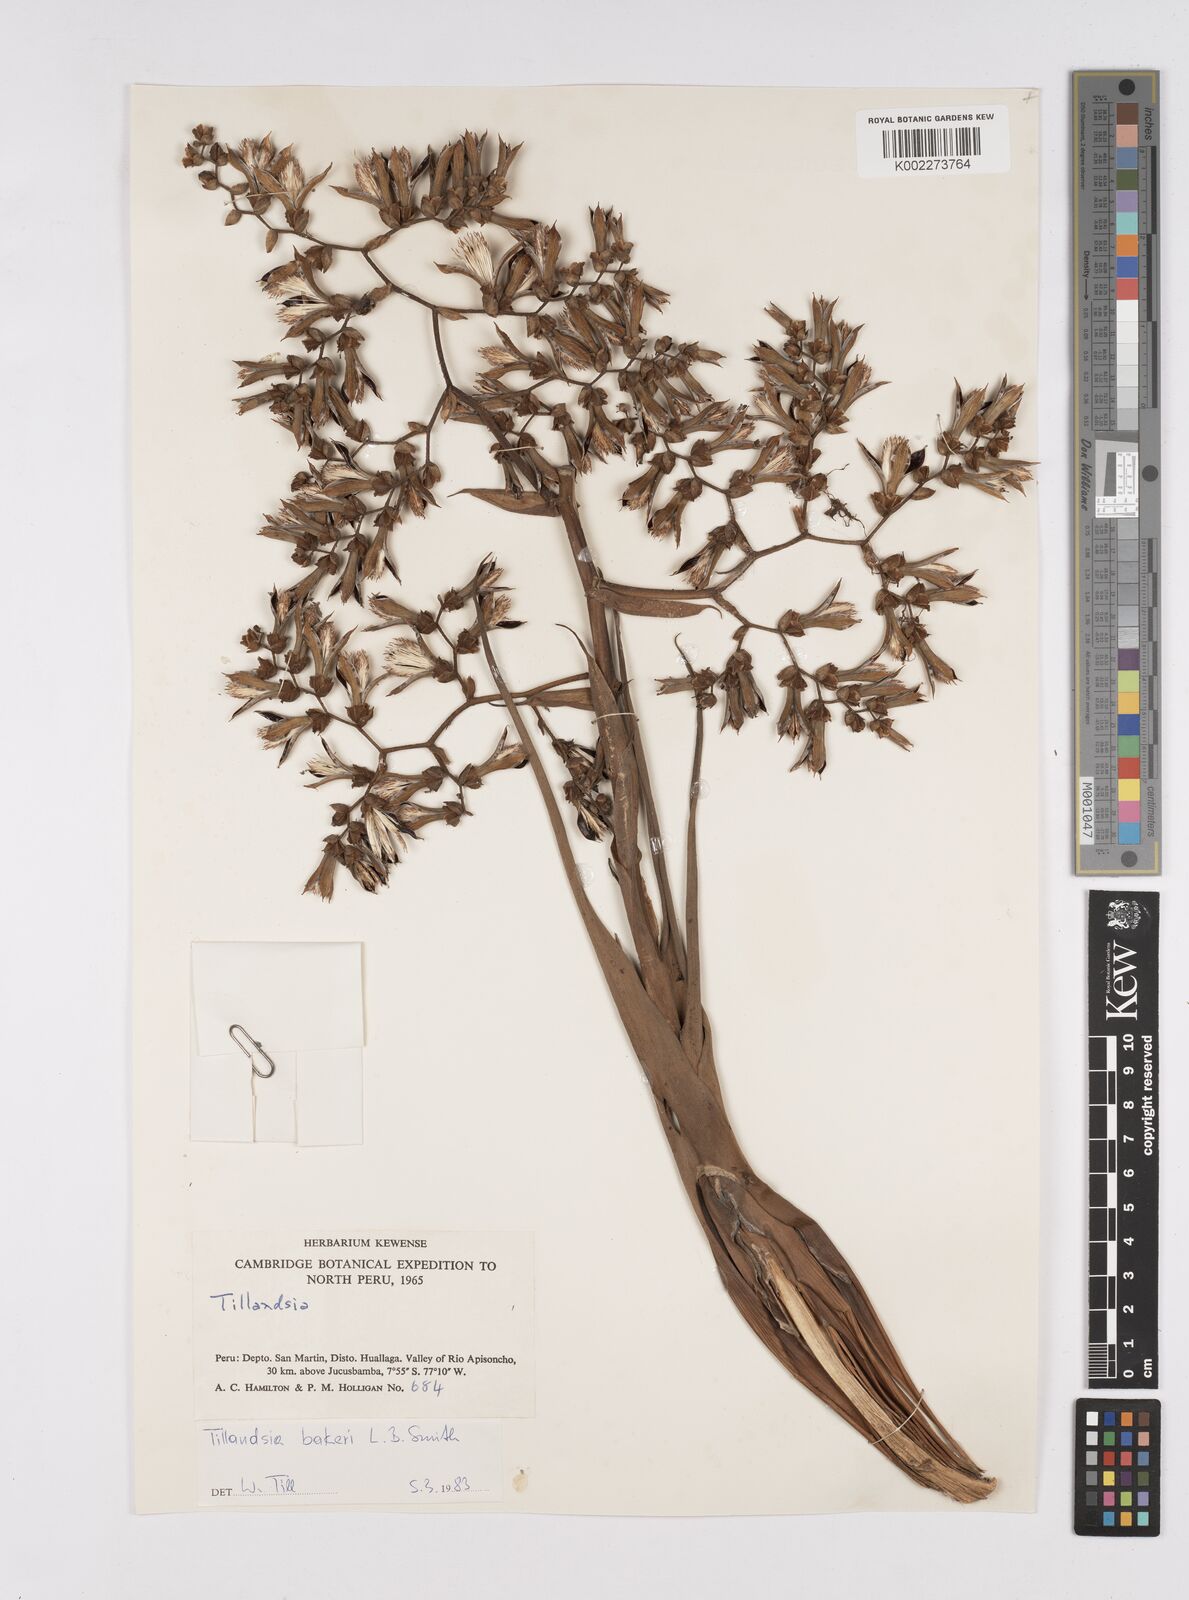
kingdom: Plantae
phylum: Tracheophyta
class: Liliopsida
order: Poales
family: Bromeliaceae
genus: Racinaea
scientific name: Racinaea flexuosa
